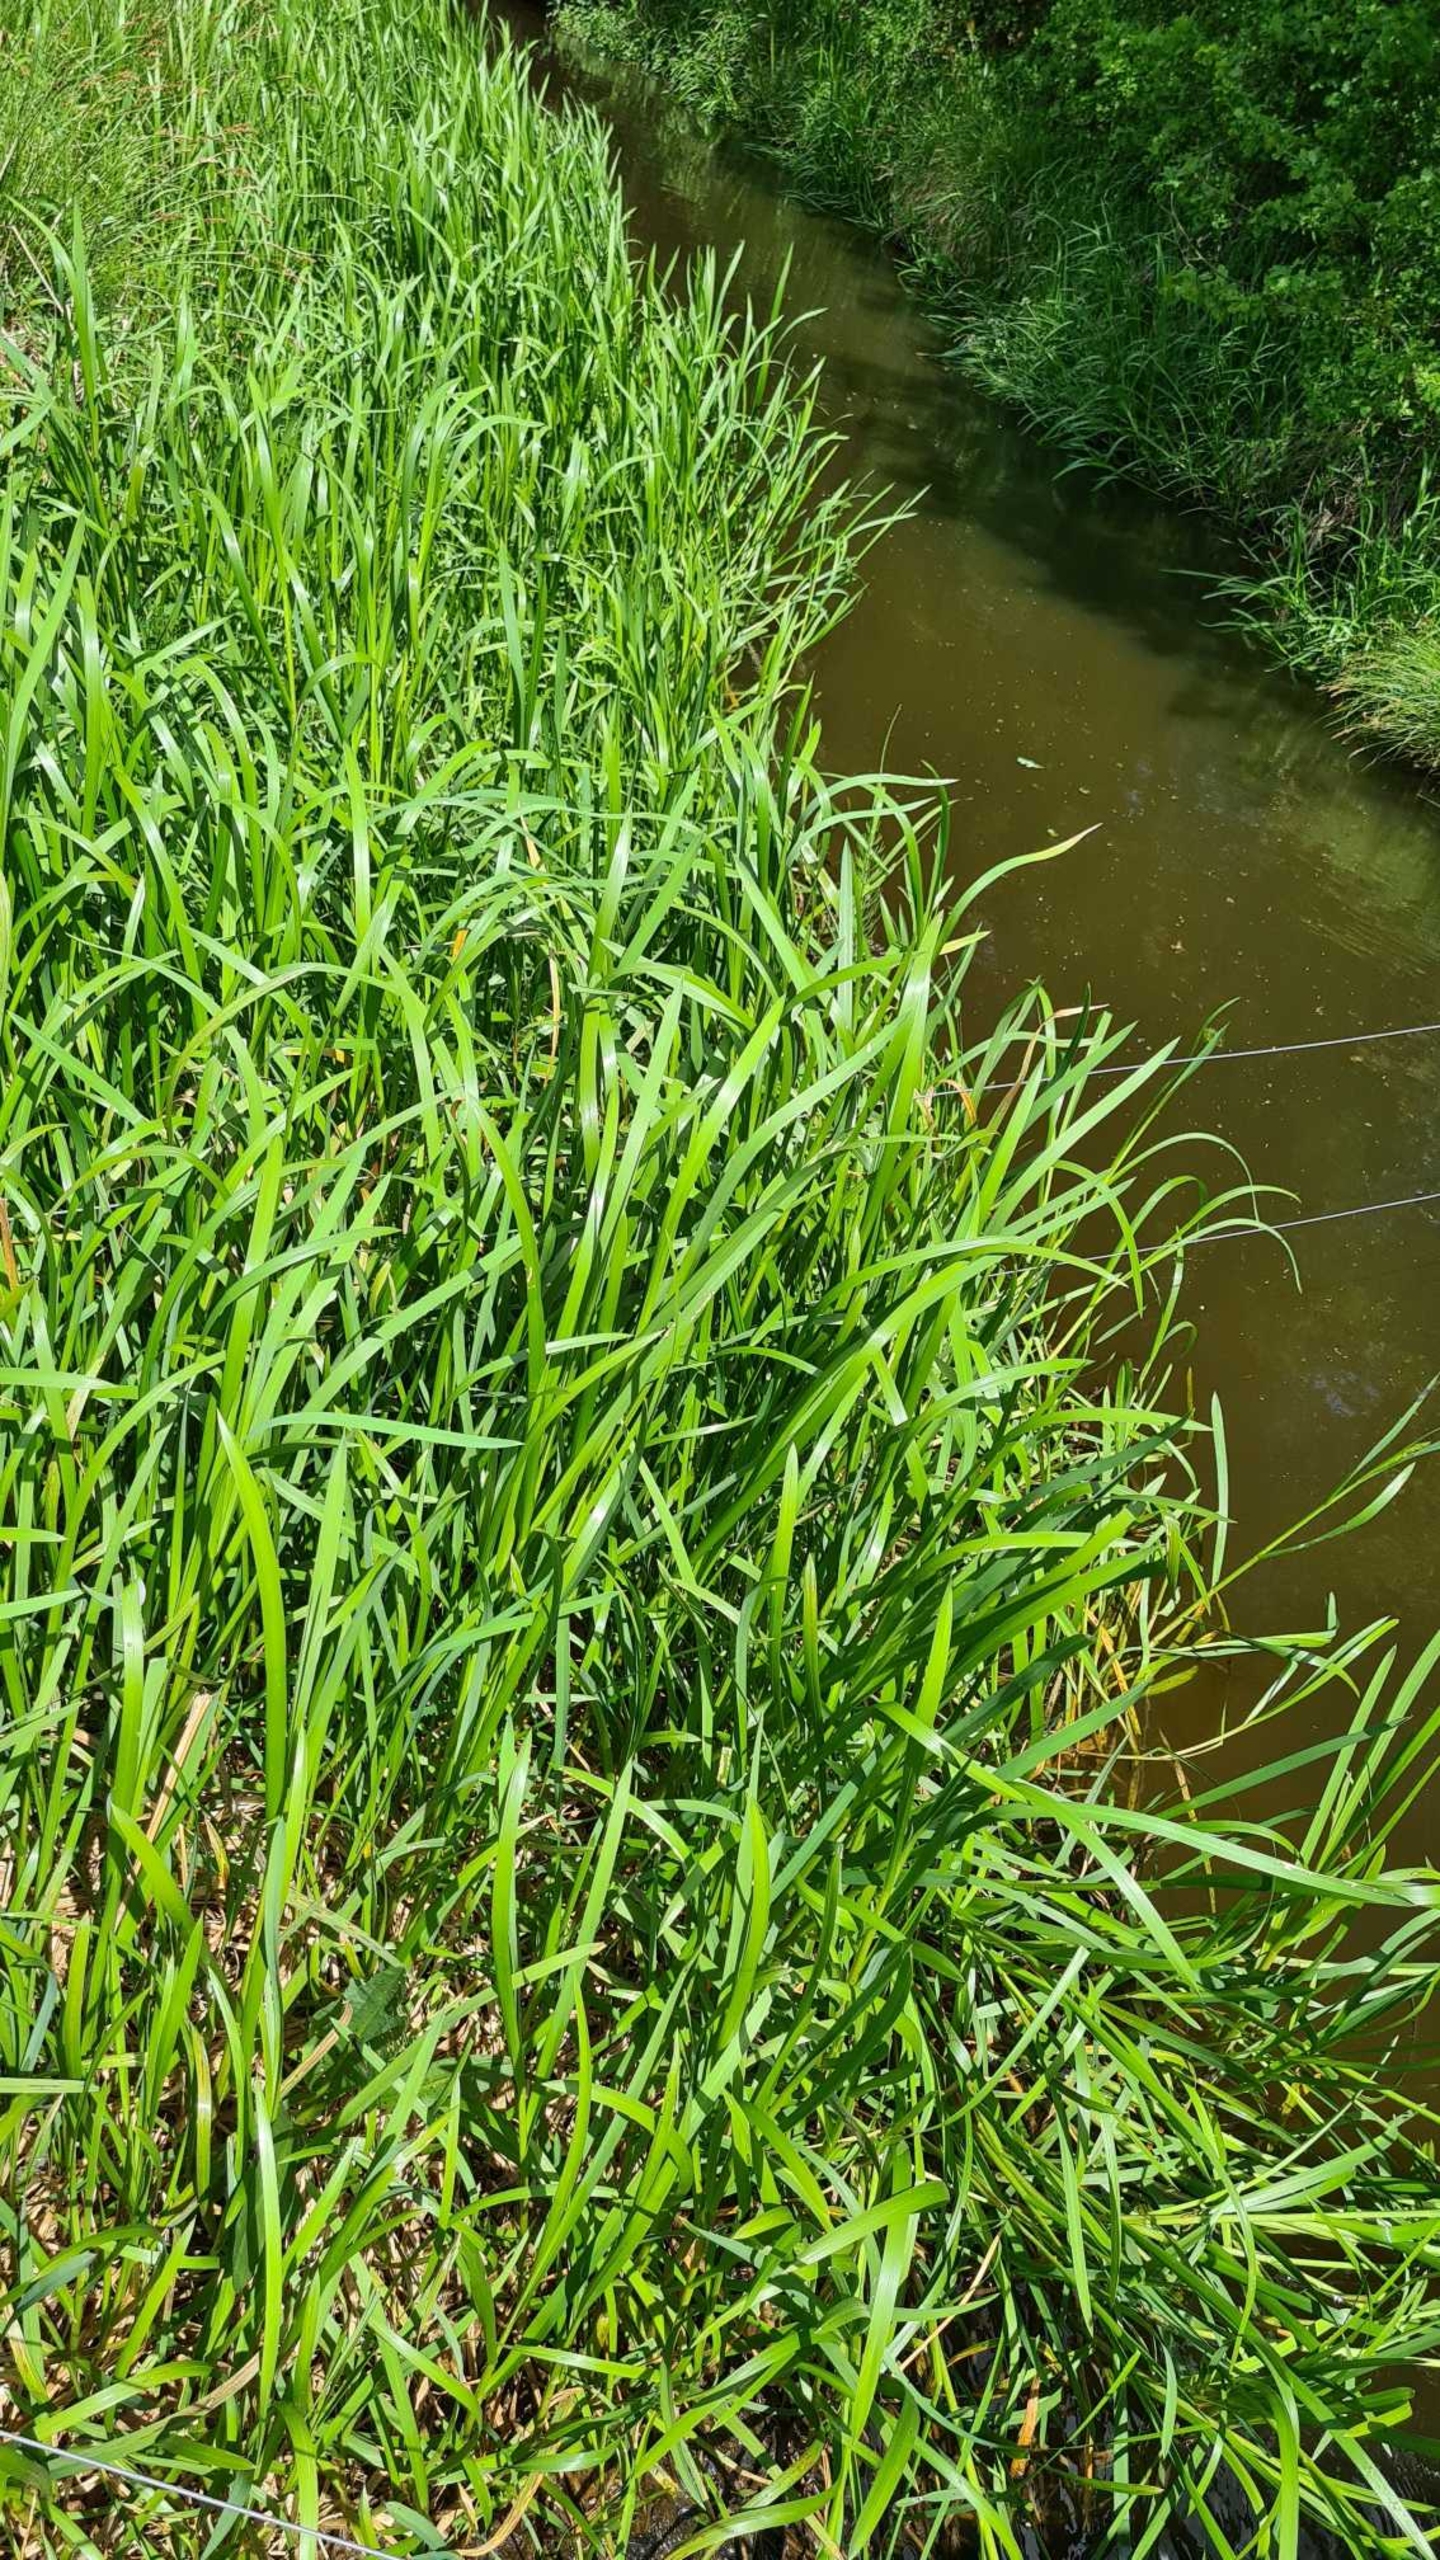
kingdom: Plantae
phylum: Tracheophyta
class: Liliopsida
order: Poales
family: Poaceae
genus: Glyceria
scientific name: Glyceria maxima
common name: Høj sødgræs
